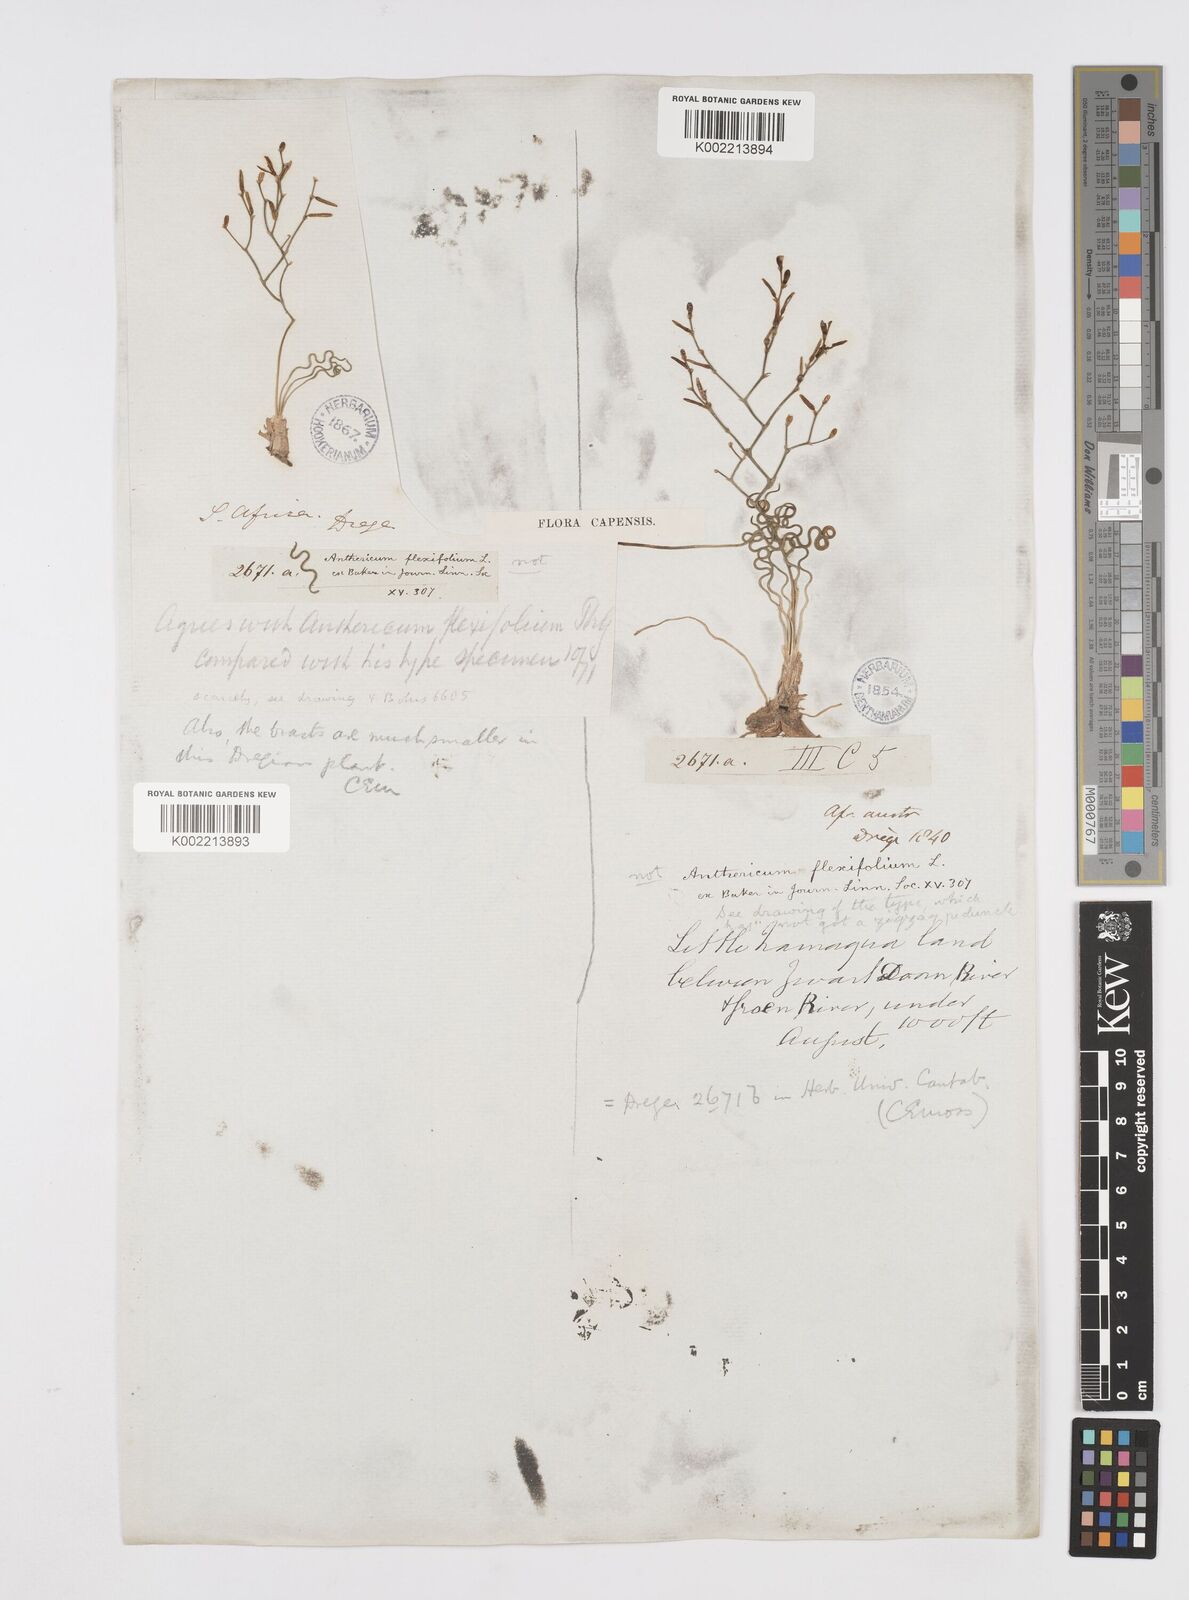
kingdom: Plantae
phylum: Tracheophyta
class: Liliopsida
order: Asparagales
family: Asphodelaceae
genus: Trachyandra
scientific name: Trachyandra flexifolia
